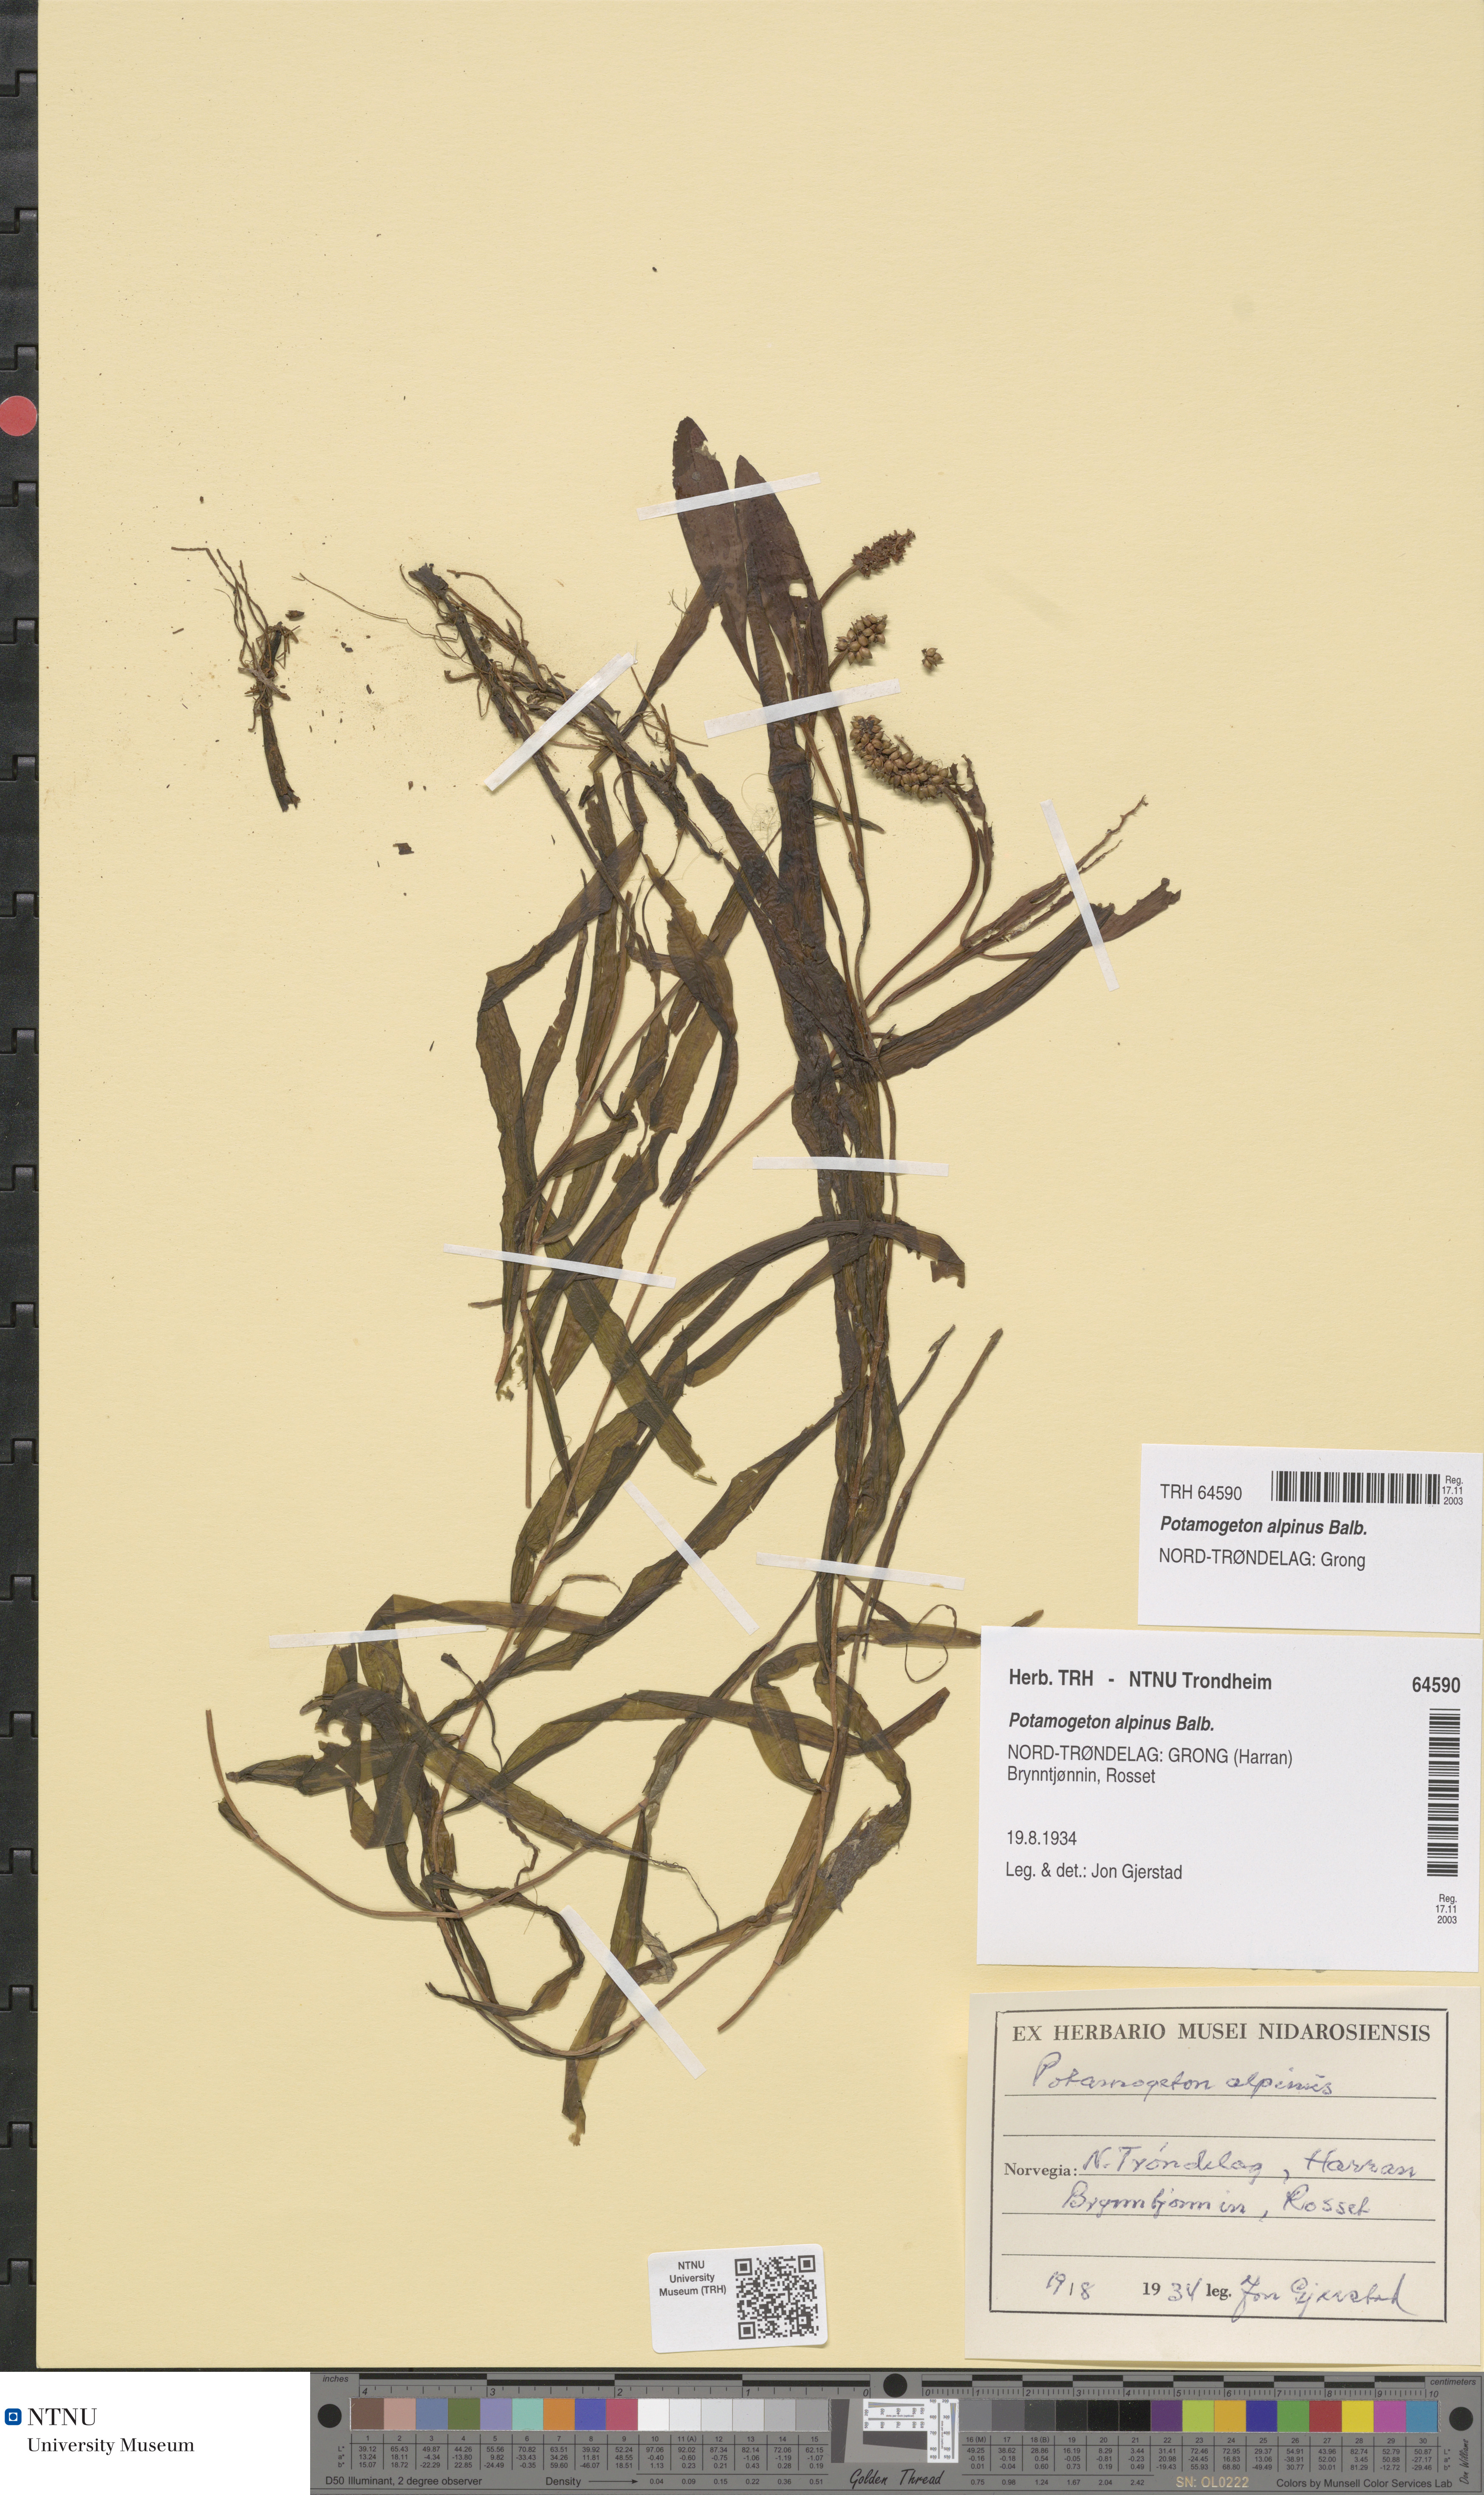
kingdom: Plantae
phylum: Tracheophyta
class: Liliopsida
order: Alismatales
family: Potamogetonaceae
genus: Potamogeton
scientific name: Potamogeton alpinus
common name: Red pondweed
